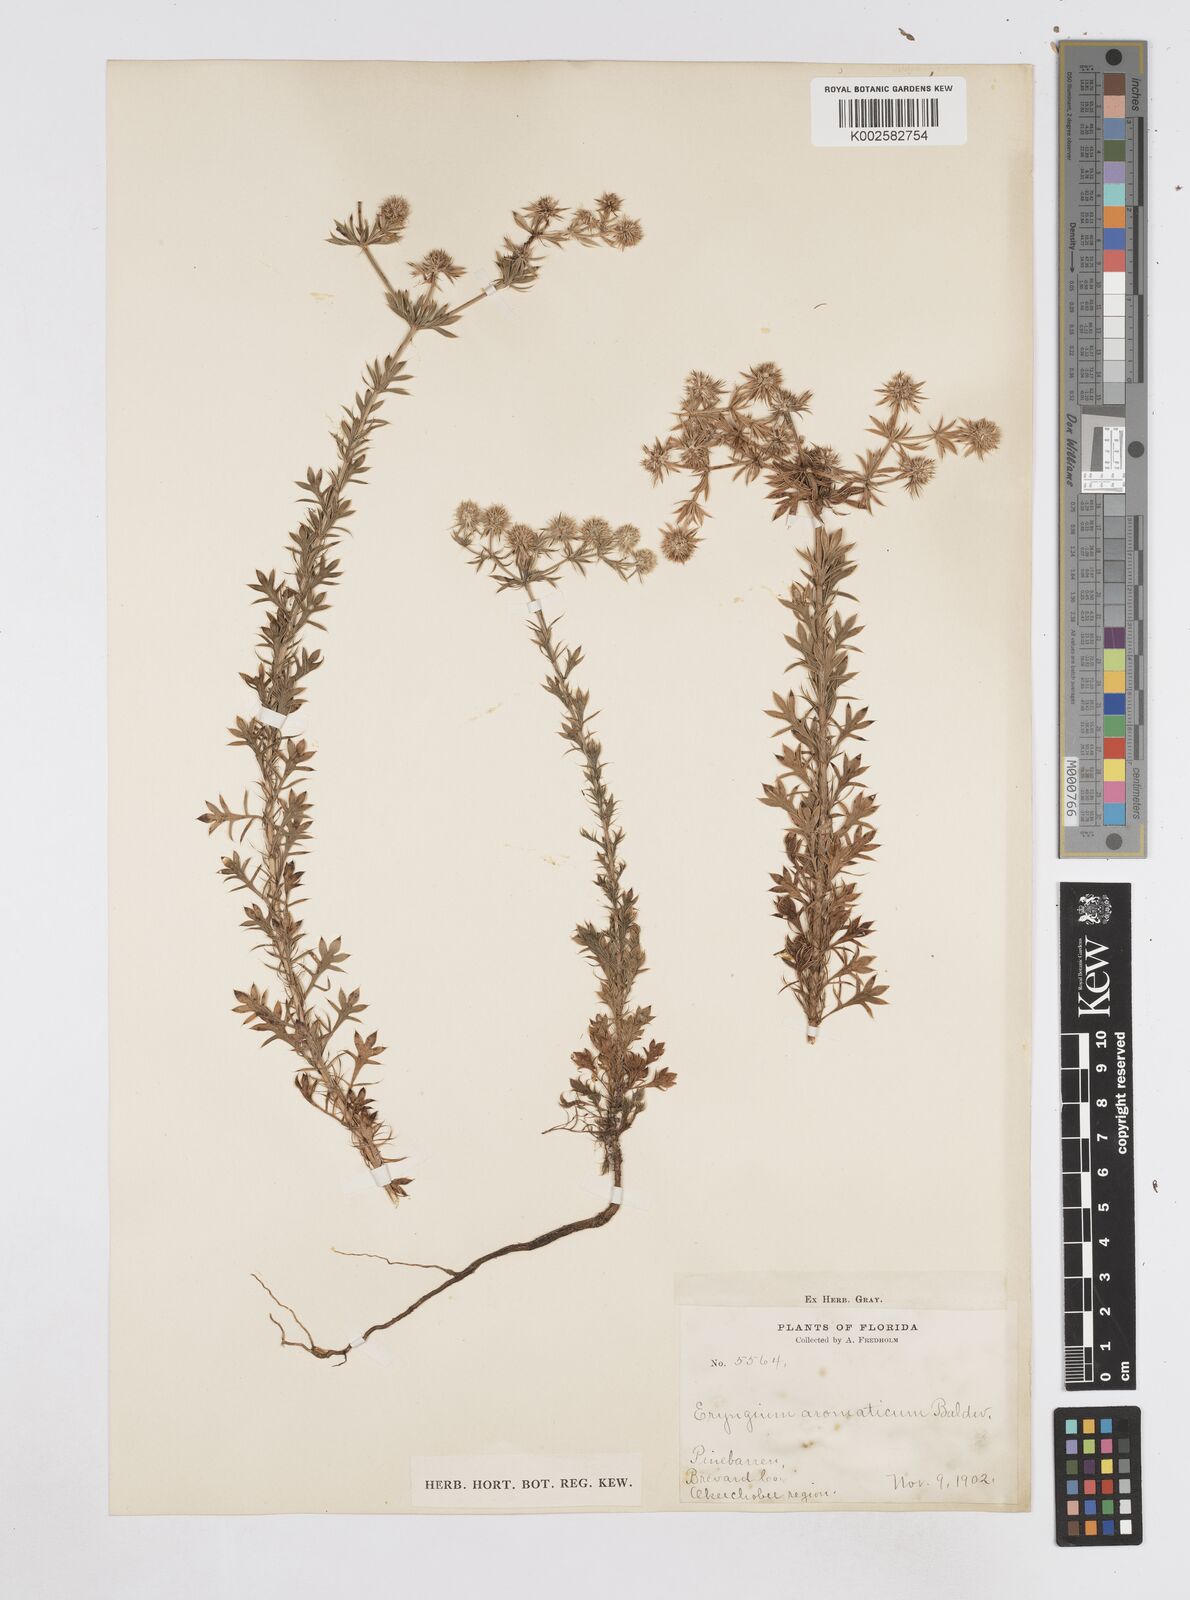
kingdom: Plantae
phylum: Tracheophyta
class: Magnoliopsida
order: Apiales
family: Apiaceae
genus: Eryngium
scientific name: Eryngium aromaticum
